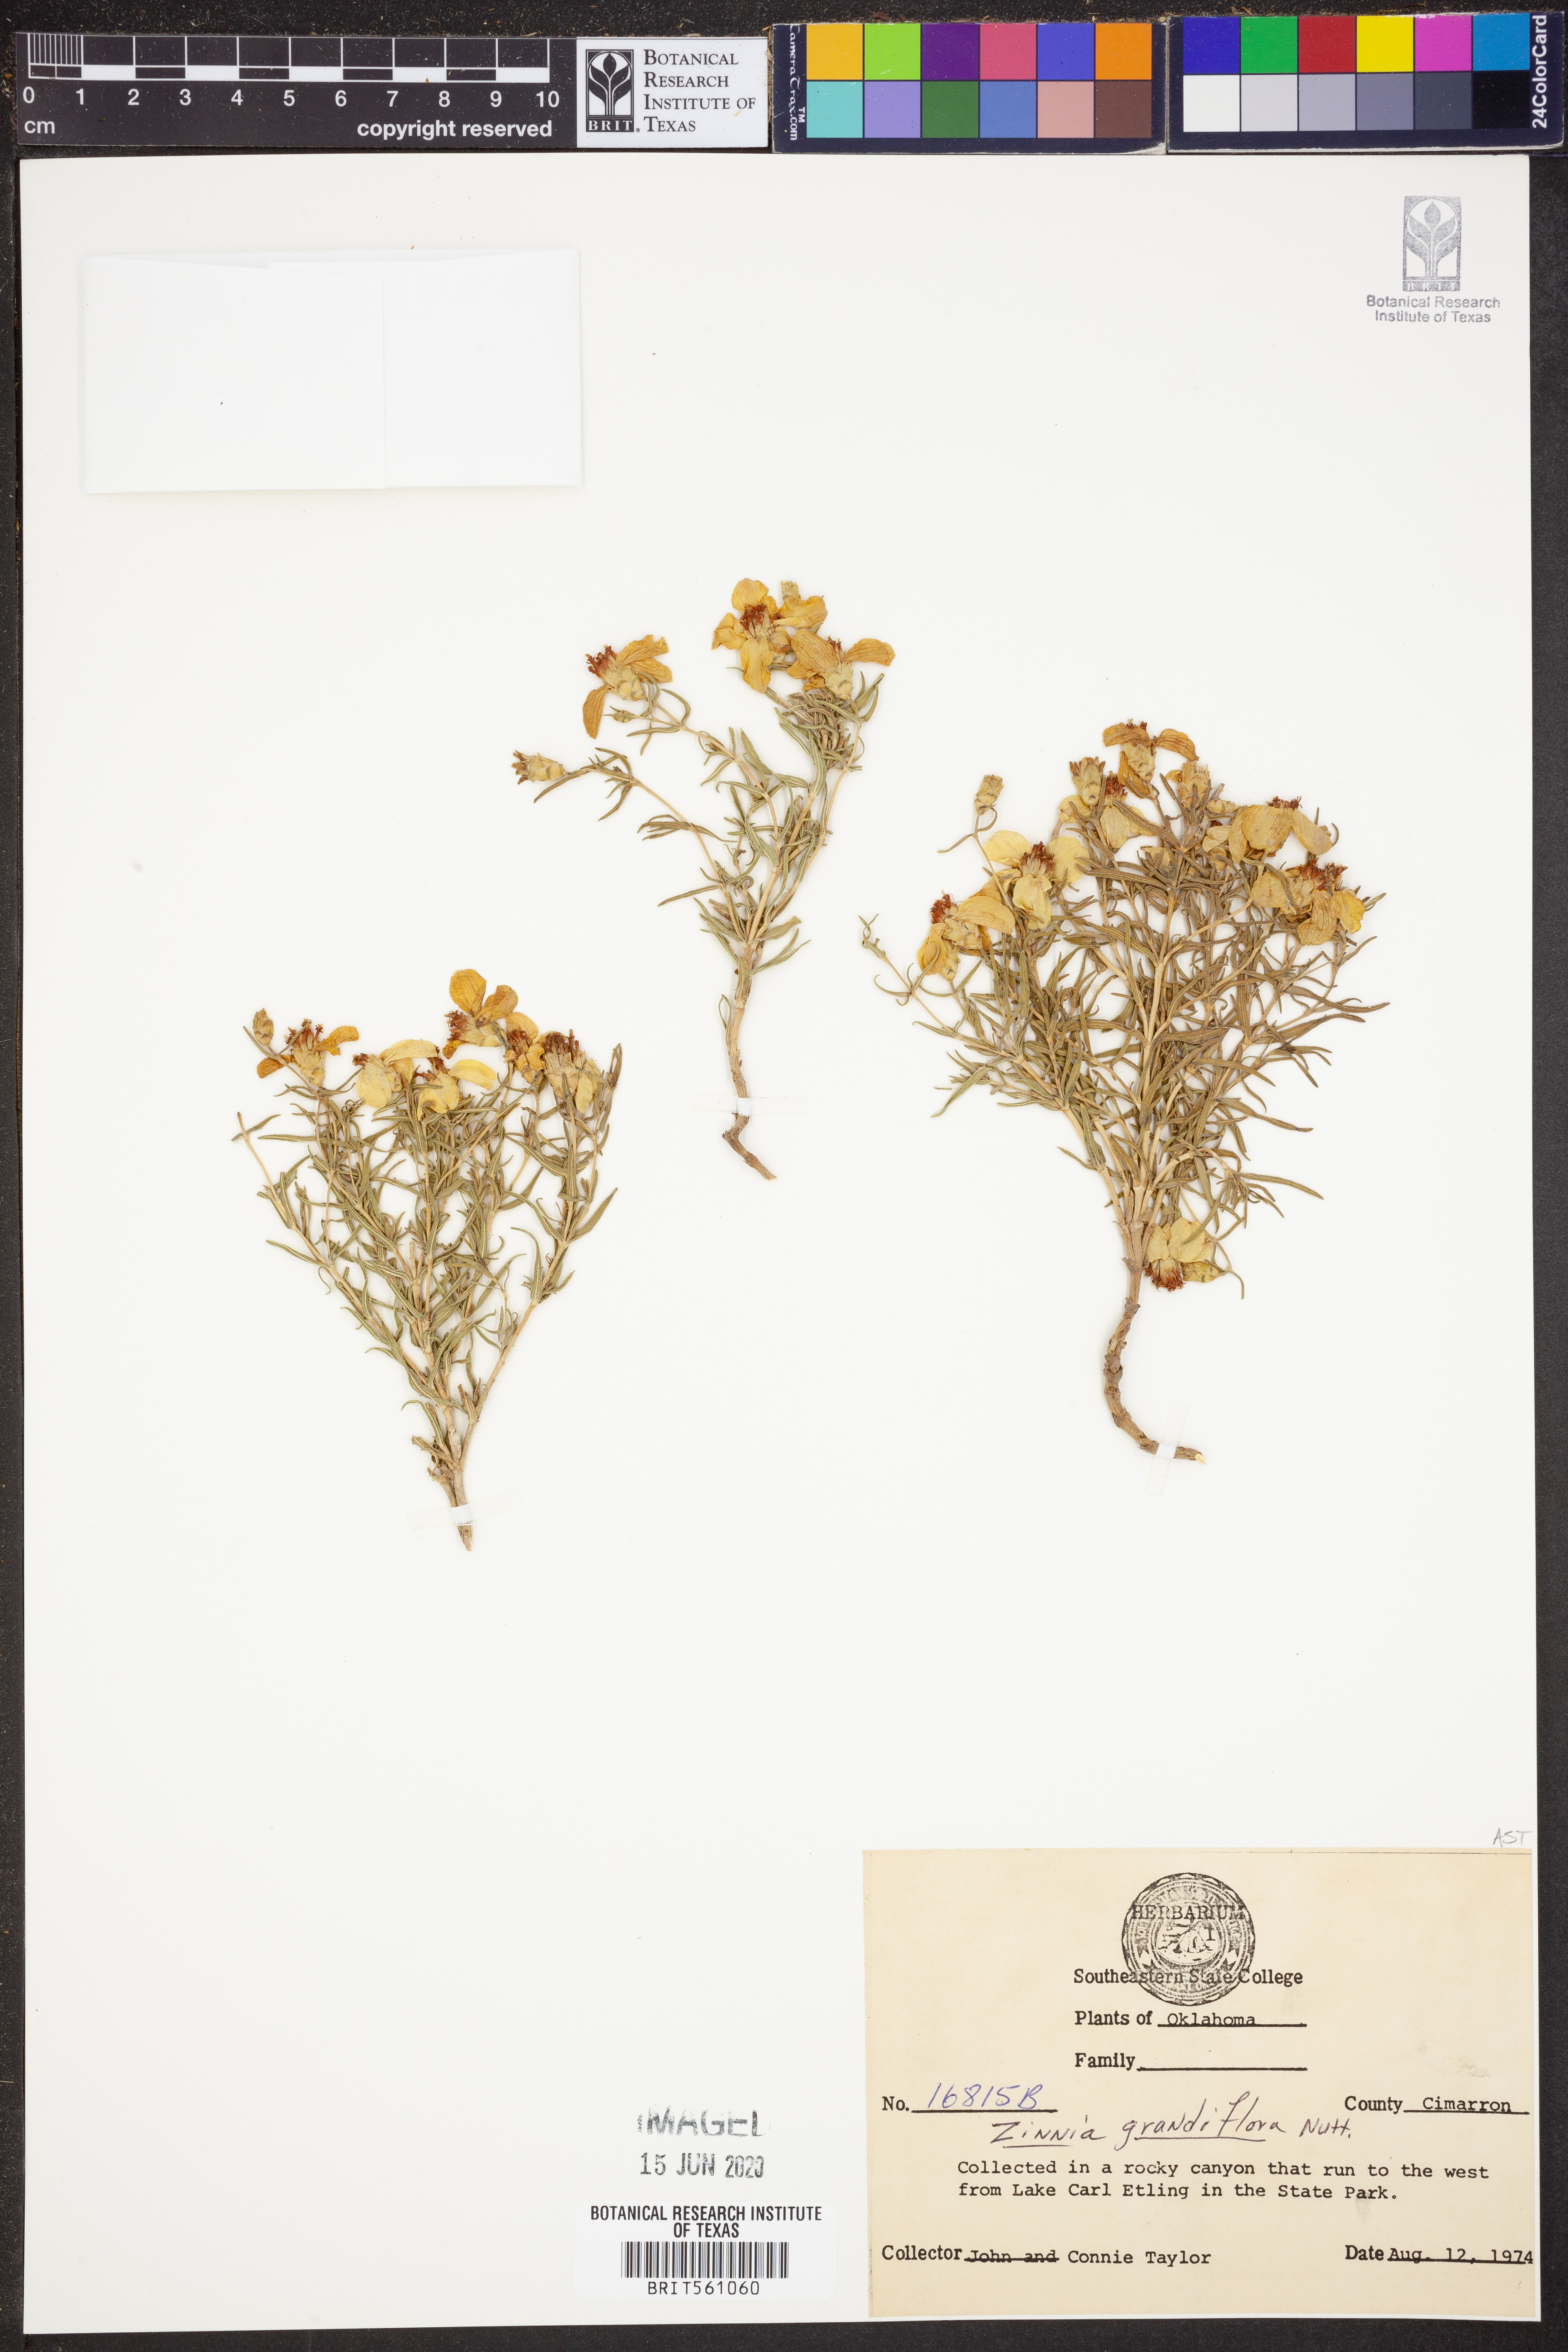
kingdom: Plantae
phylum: Tracheophyta
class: Magnoliopsida
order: Asterales
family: Asteraceae
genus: Zinnia
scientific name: Zinnia grandiflora
